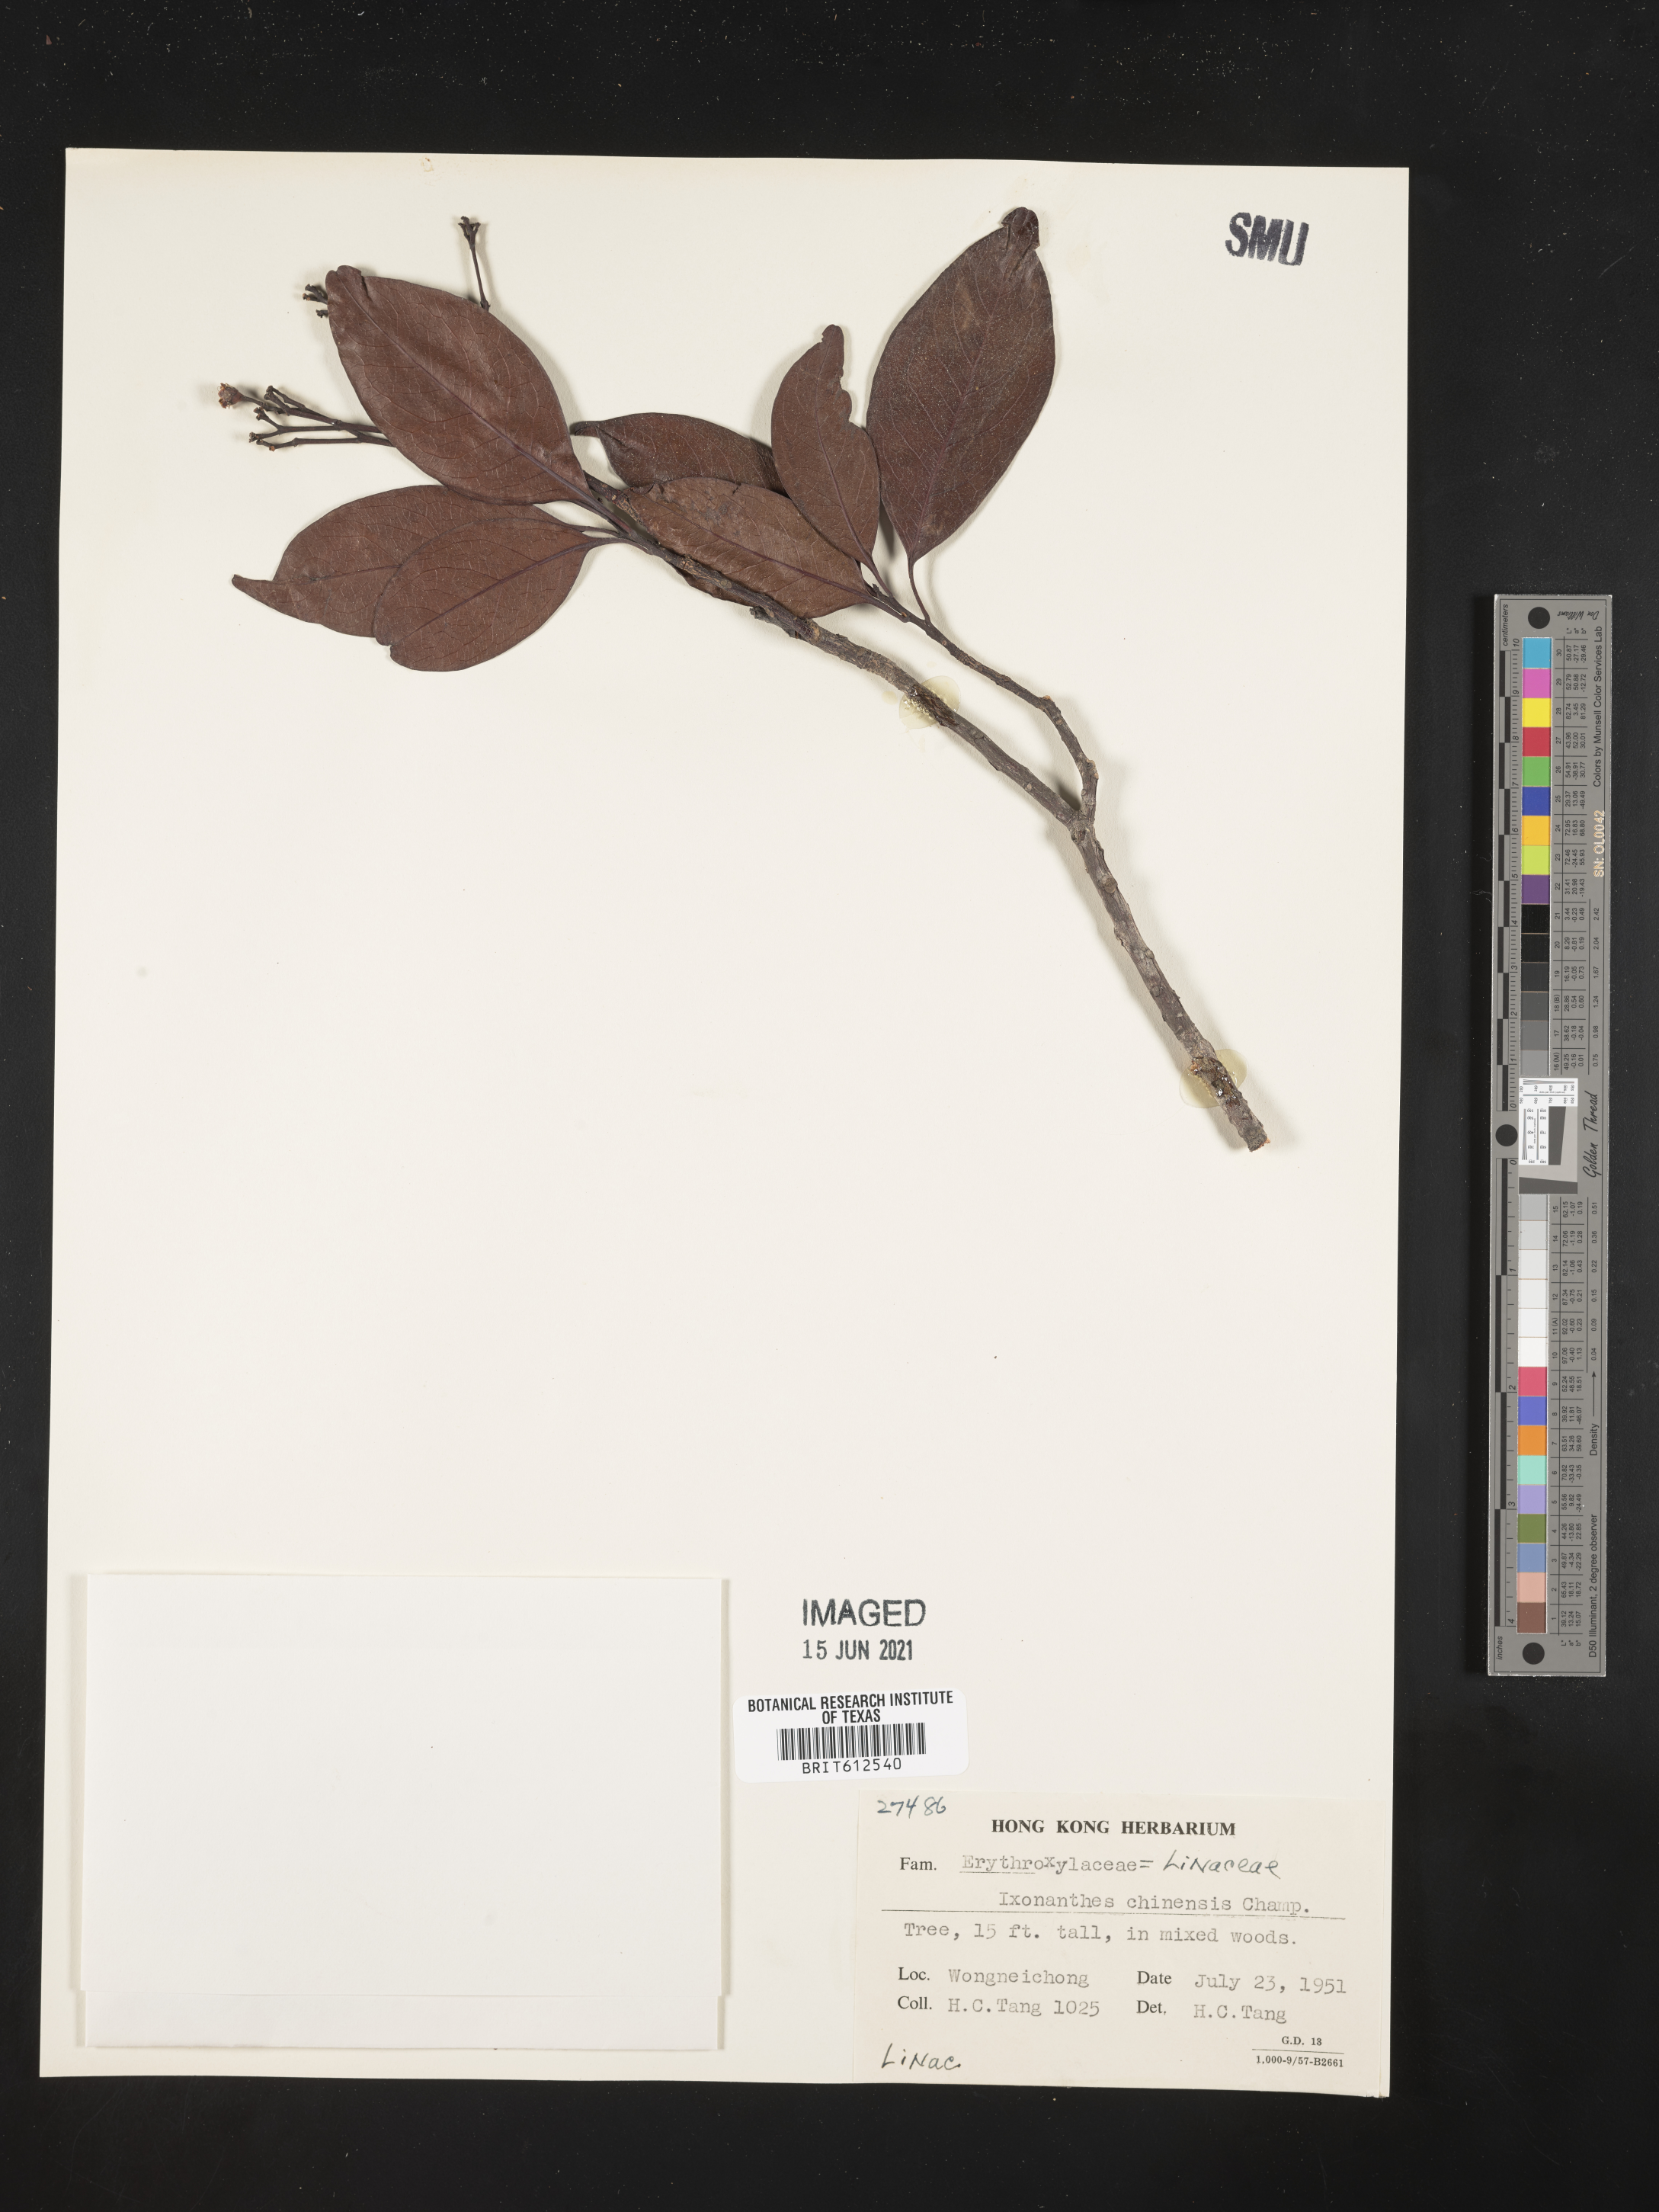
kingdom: Plantae
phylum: Tracheophyta
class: Magnoliopsida
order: Malpighiales
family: Ixonanthaceae
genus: Ixonanthes
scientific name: Ixonanthes reticulata
